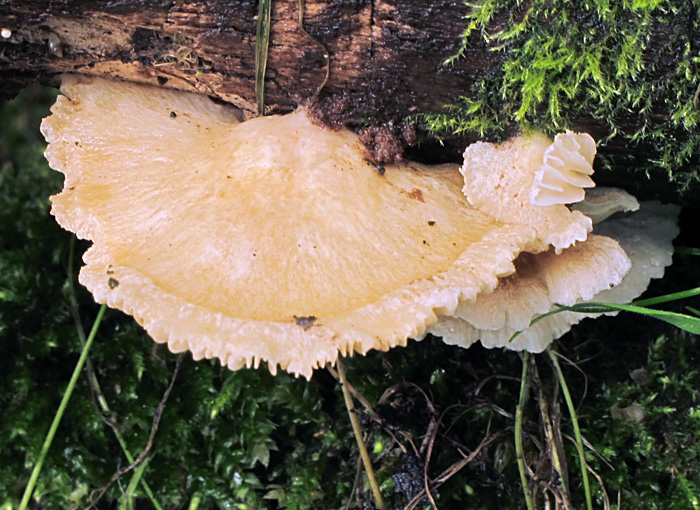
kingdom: Fungi
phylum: Basidiomycota
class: Agaricomycetes
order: Agaricales
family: Crepidotaceae
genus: Crepidotus
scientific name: Crepidotus caspari
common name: Lundells muslingesvamp
